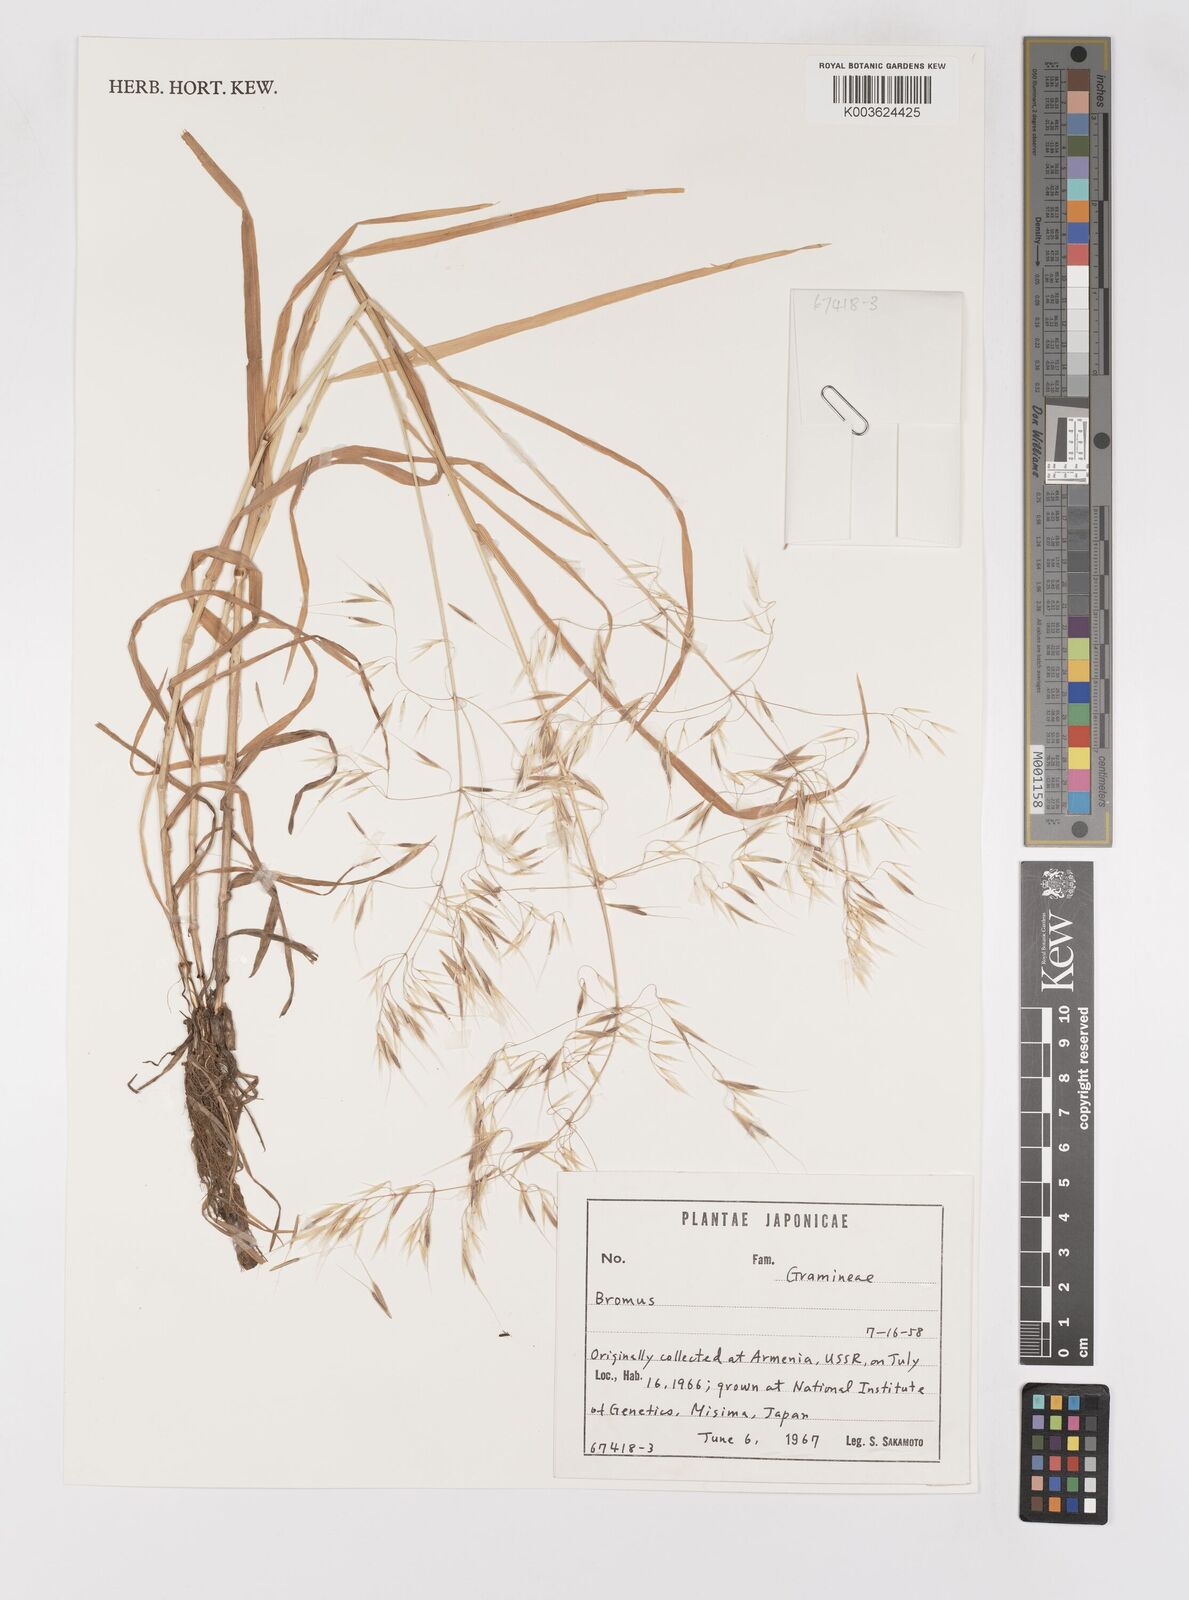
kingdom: Plantae
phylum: Tracheophyta
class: Liliopsida
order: Poales
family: Poaceae
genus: Bromus
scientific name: Bromus
